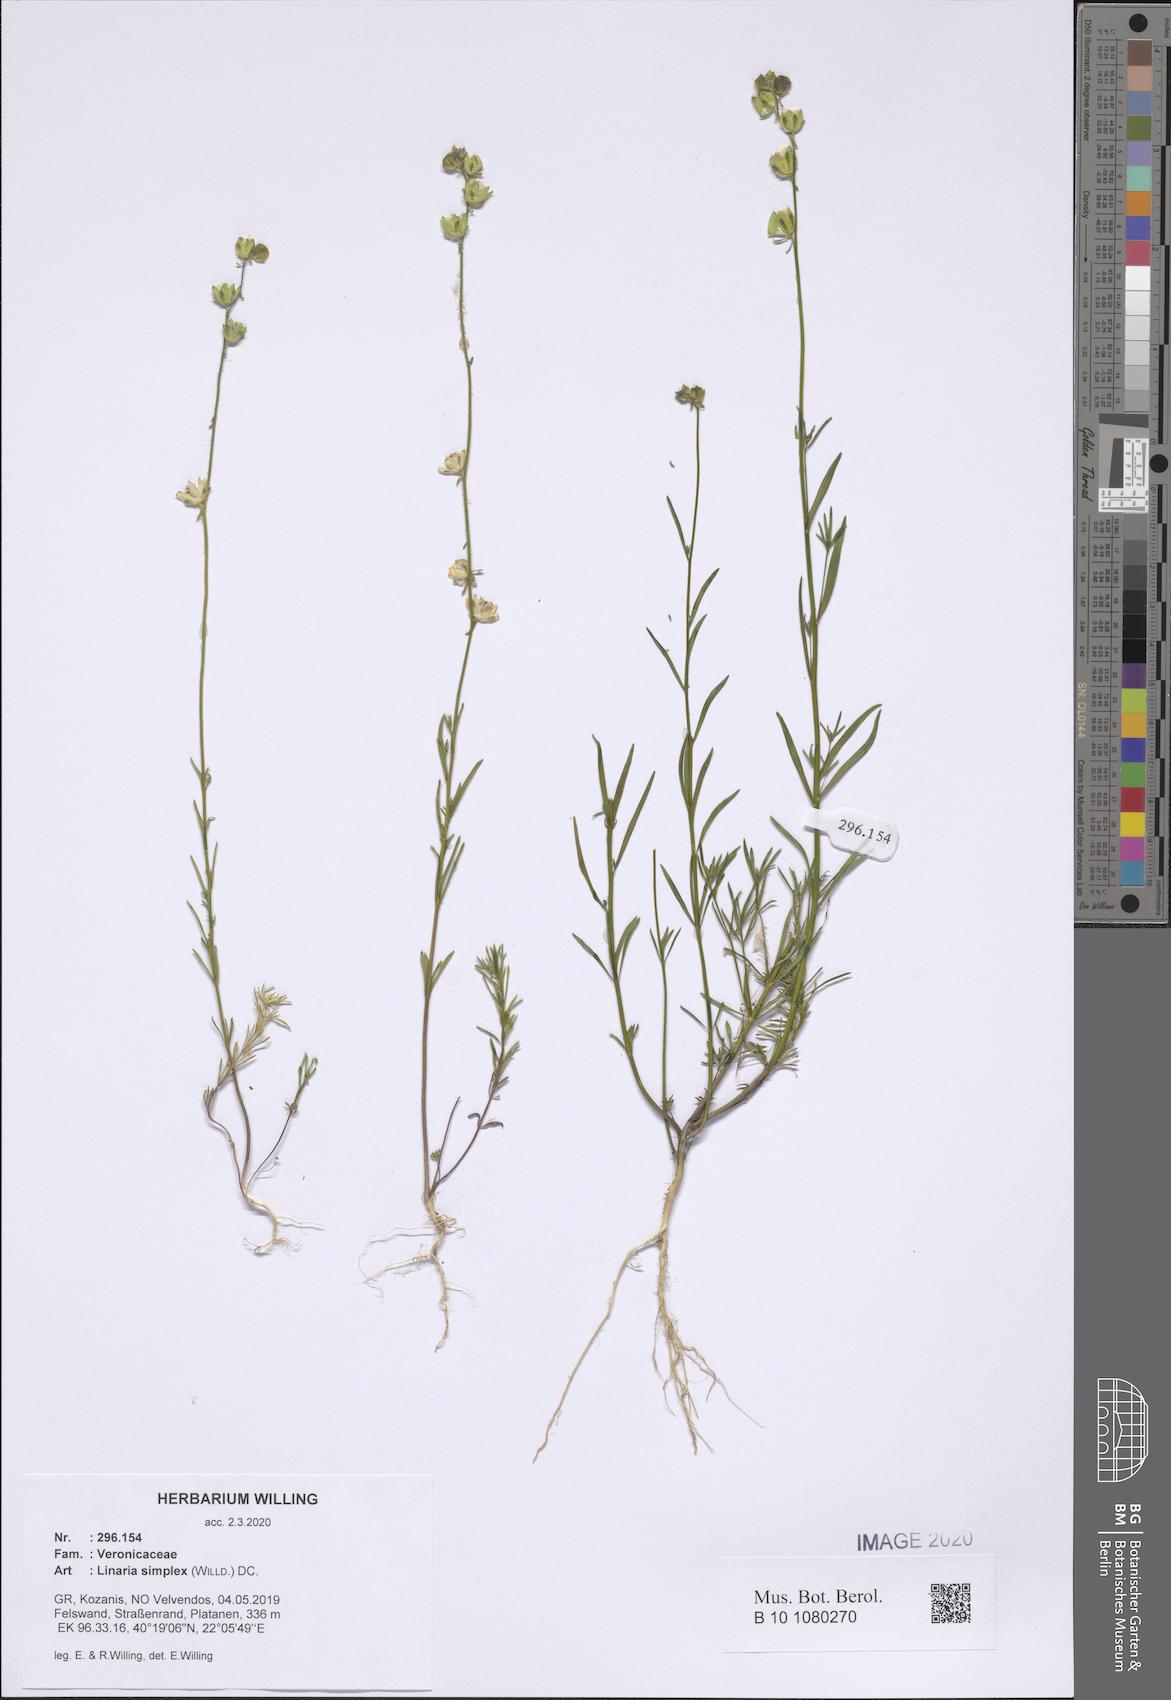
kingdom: Plantae
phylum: Tracheophyta
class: Magnoliopsida
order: Lamiales
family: Plantaginaceae
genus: Linaria
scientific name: Linaria simplex
